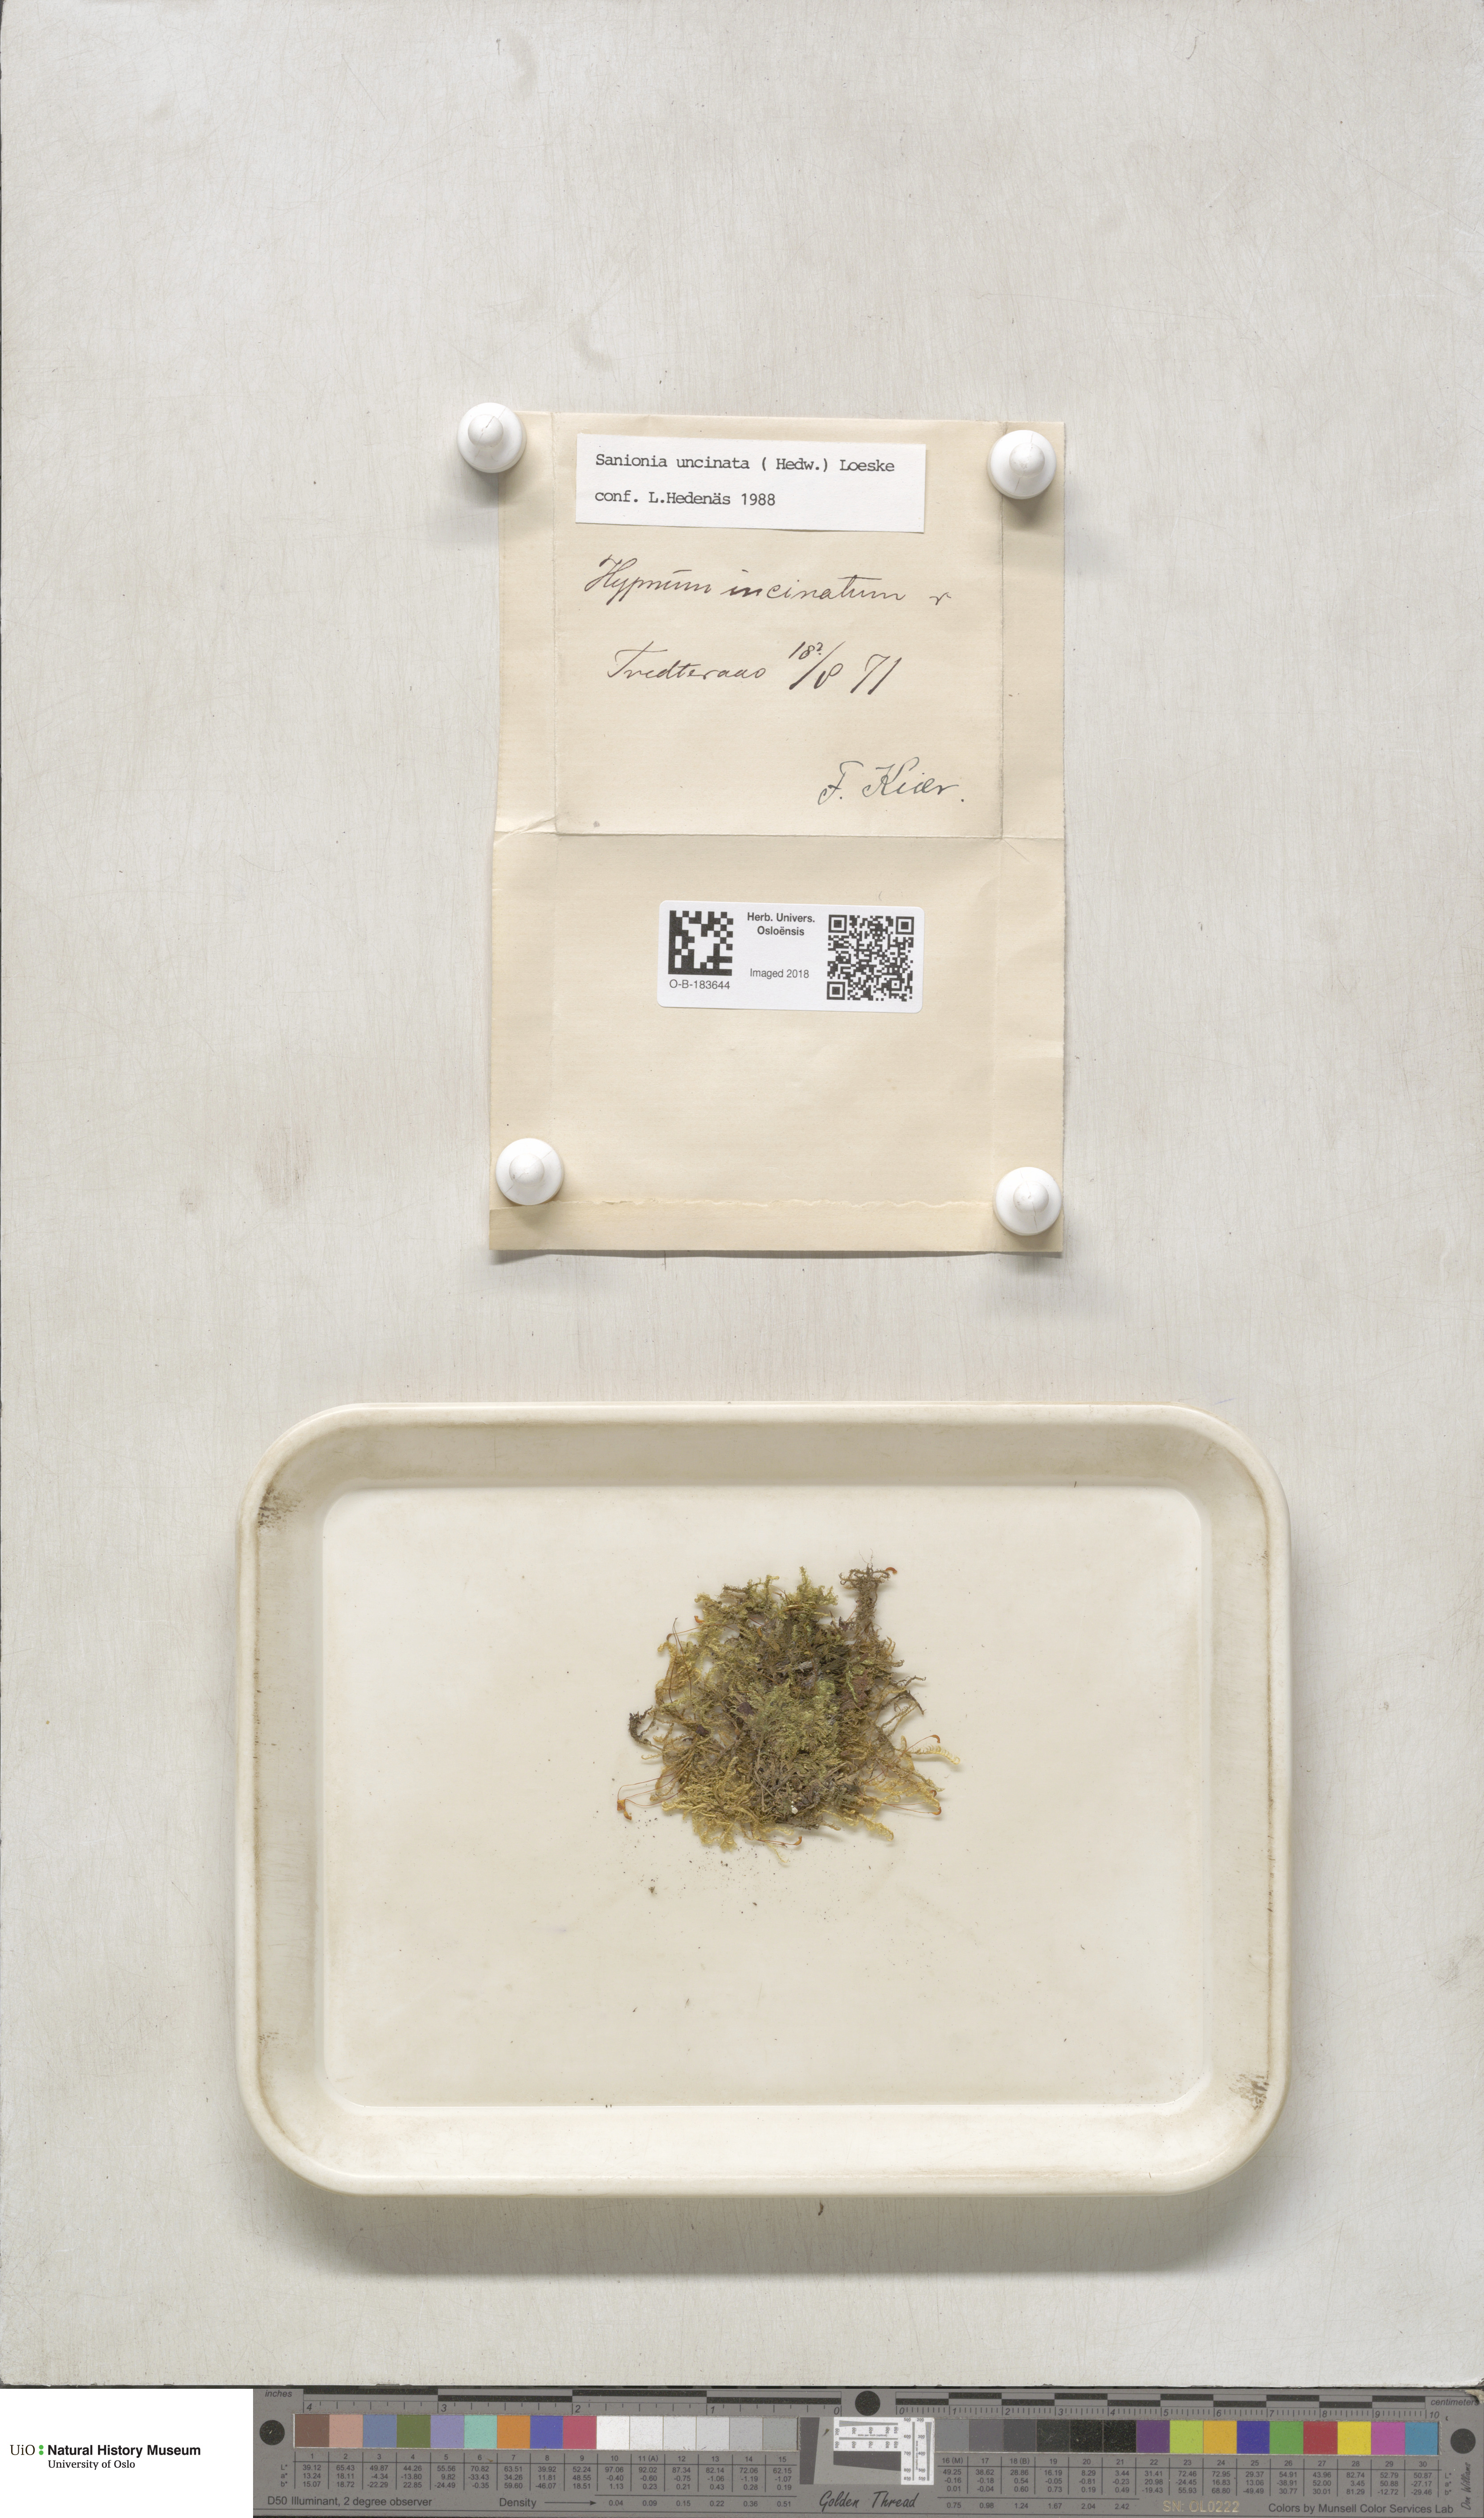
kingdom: Plantae
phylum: Bryophyta
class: Bryopsida
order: Hypnales
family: Scorpidiaceae
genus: Sanionia
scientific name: Sanionia uncinata
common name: Sickle moss
